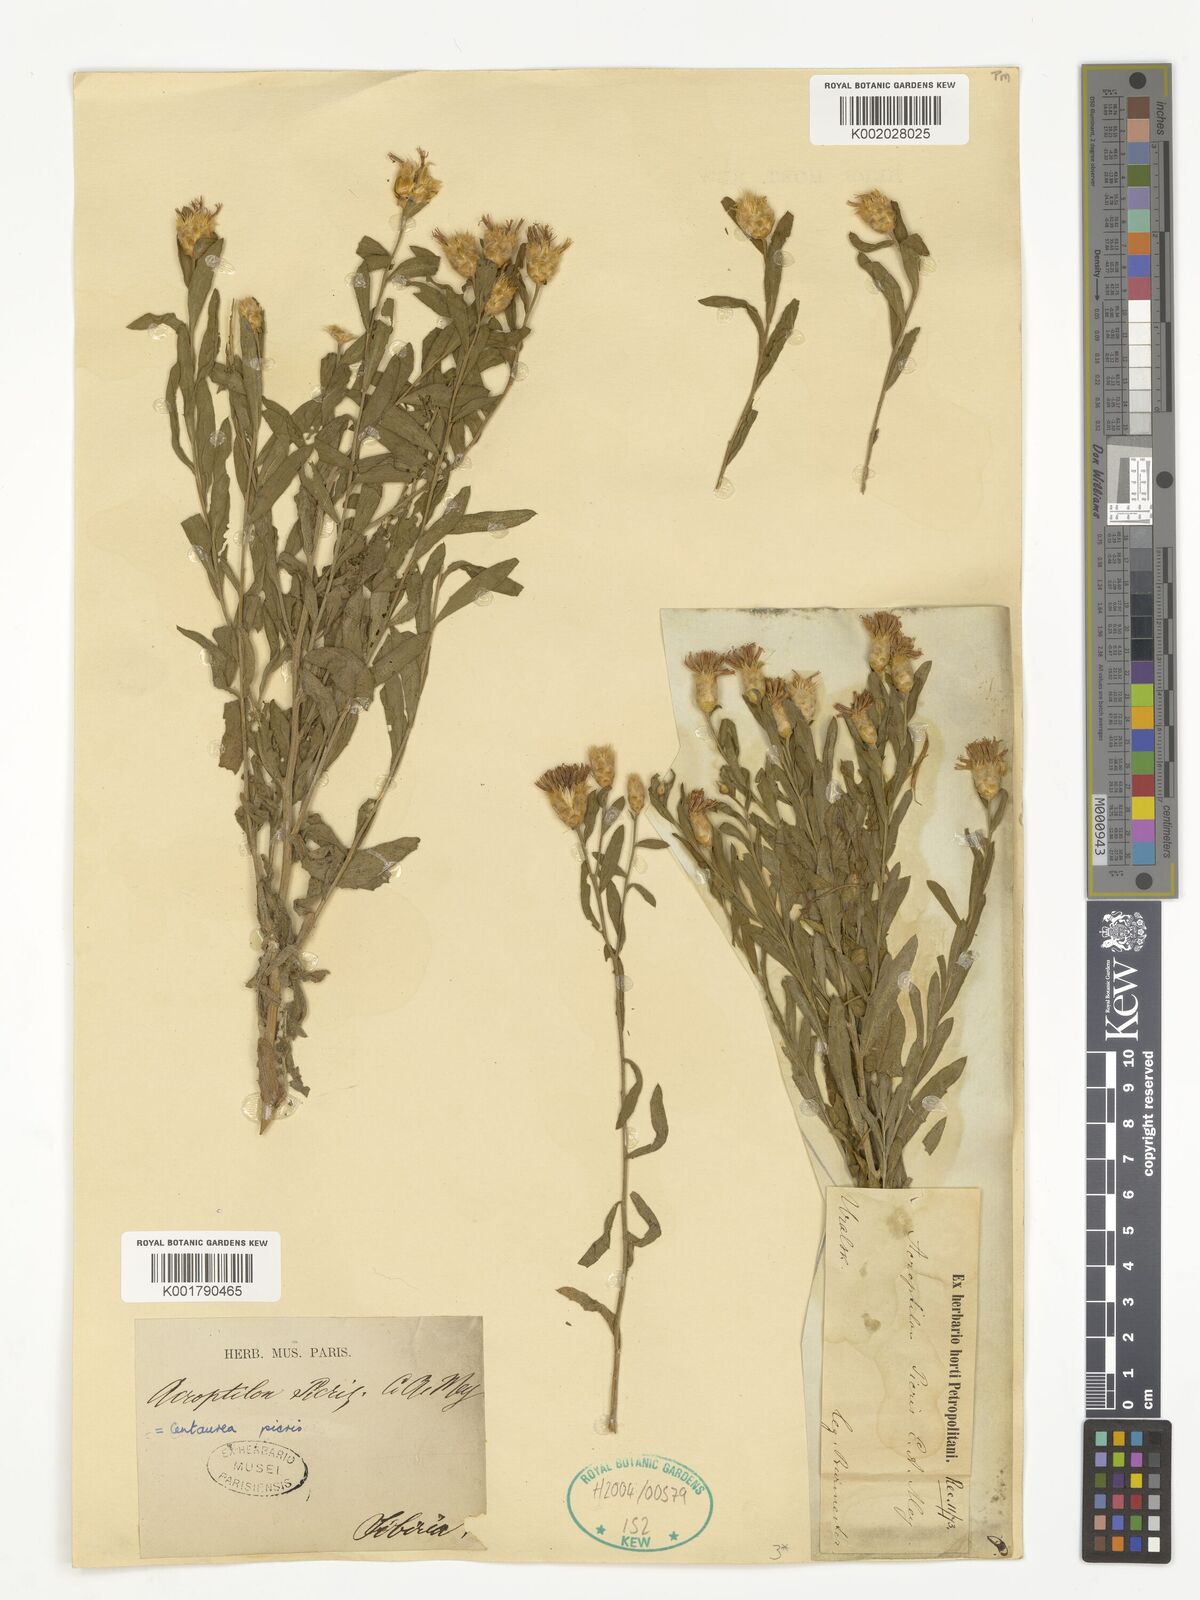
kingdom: Plantae
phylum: Tracheophyta
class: Magnoliopsida
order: Asterales
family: Asteraceae
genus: Leuzea
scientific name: Leuzea repens
